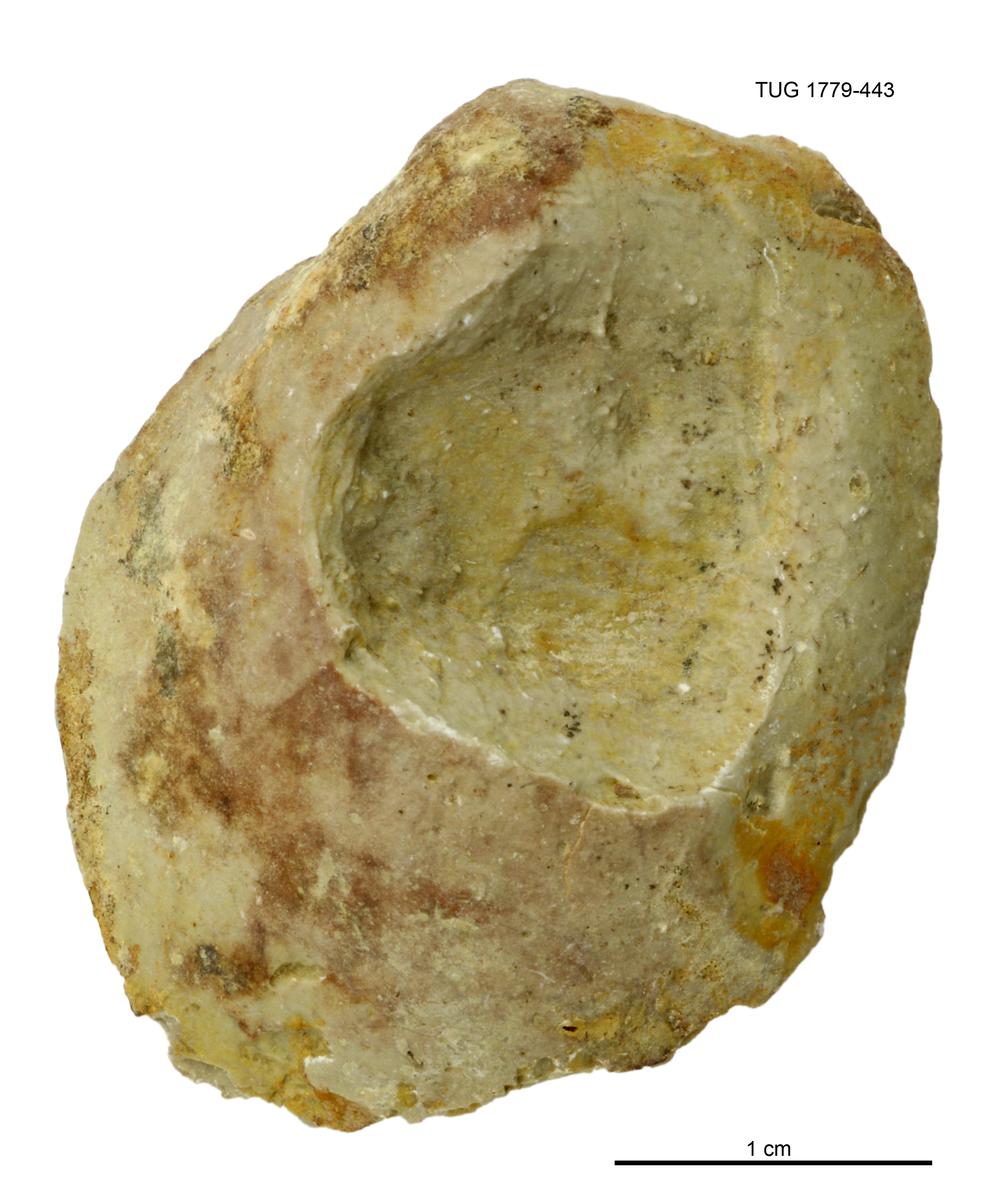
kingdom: Animalia
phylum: Mollusca
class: Bivalvia
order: Modiomorphida
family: Modiomorphidae
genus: Modiolopsis
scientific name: Modiolopsis
